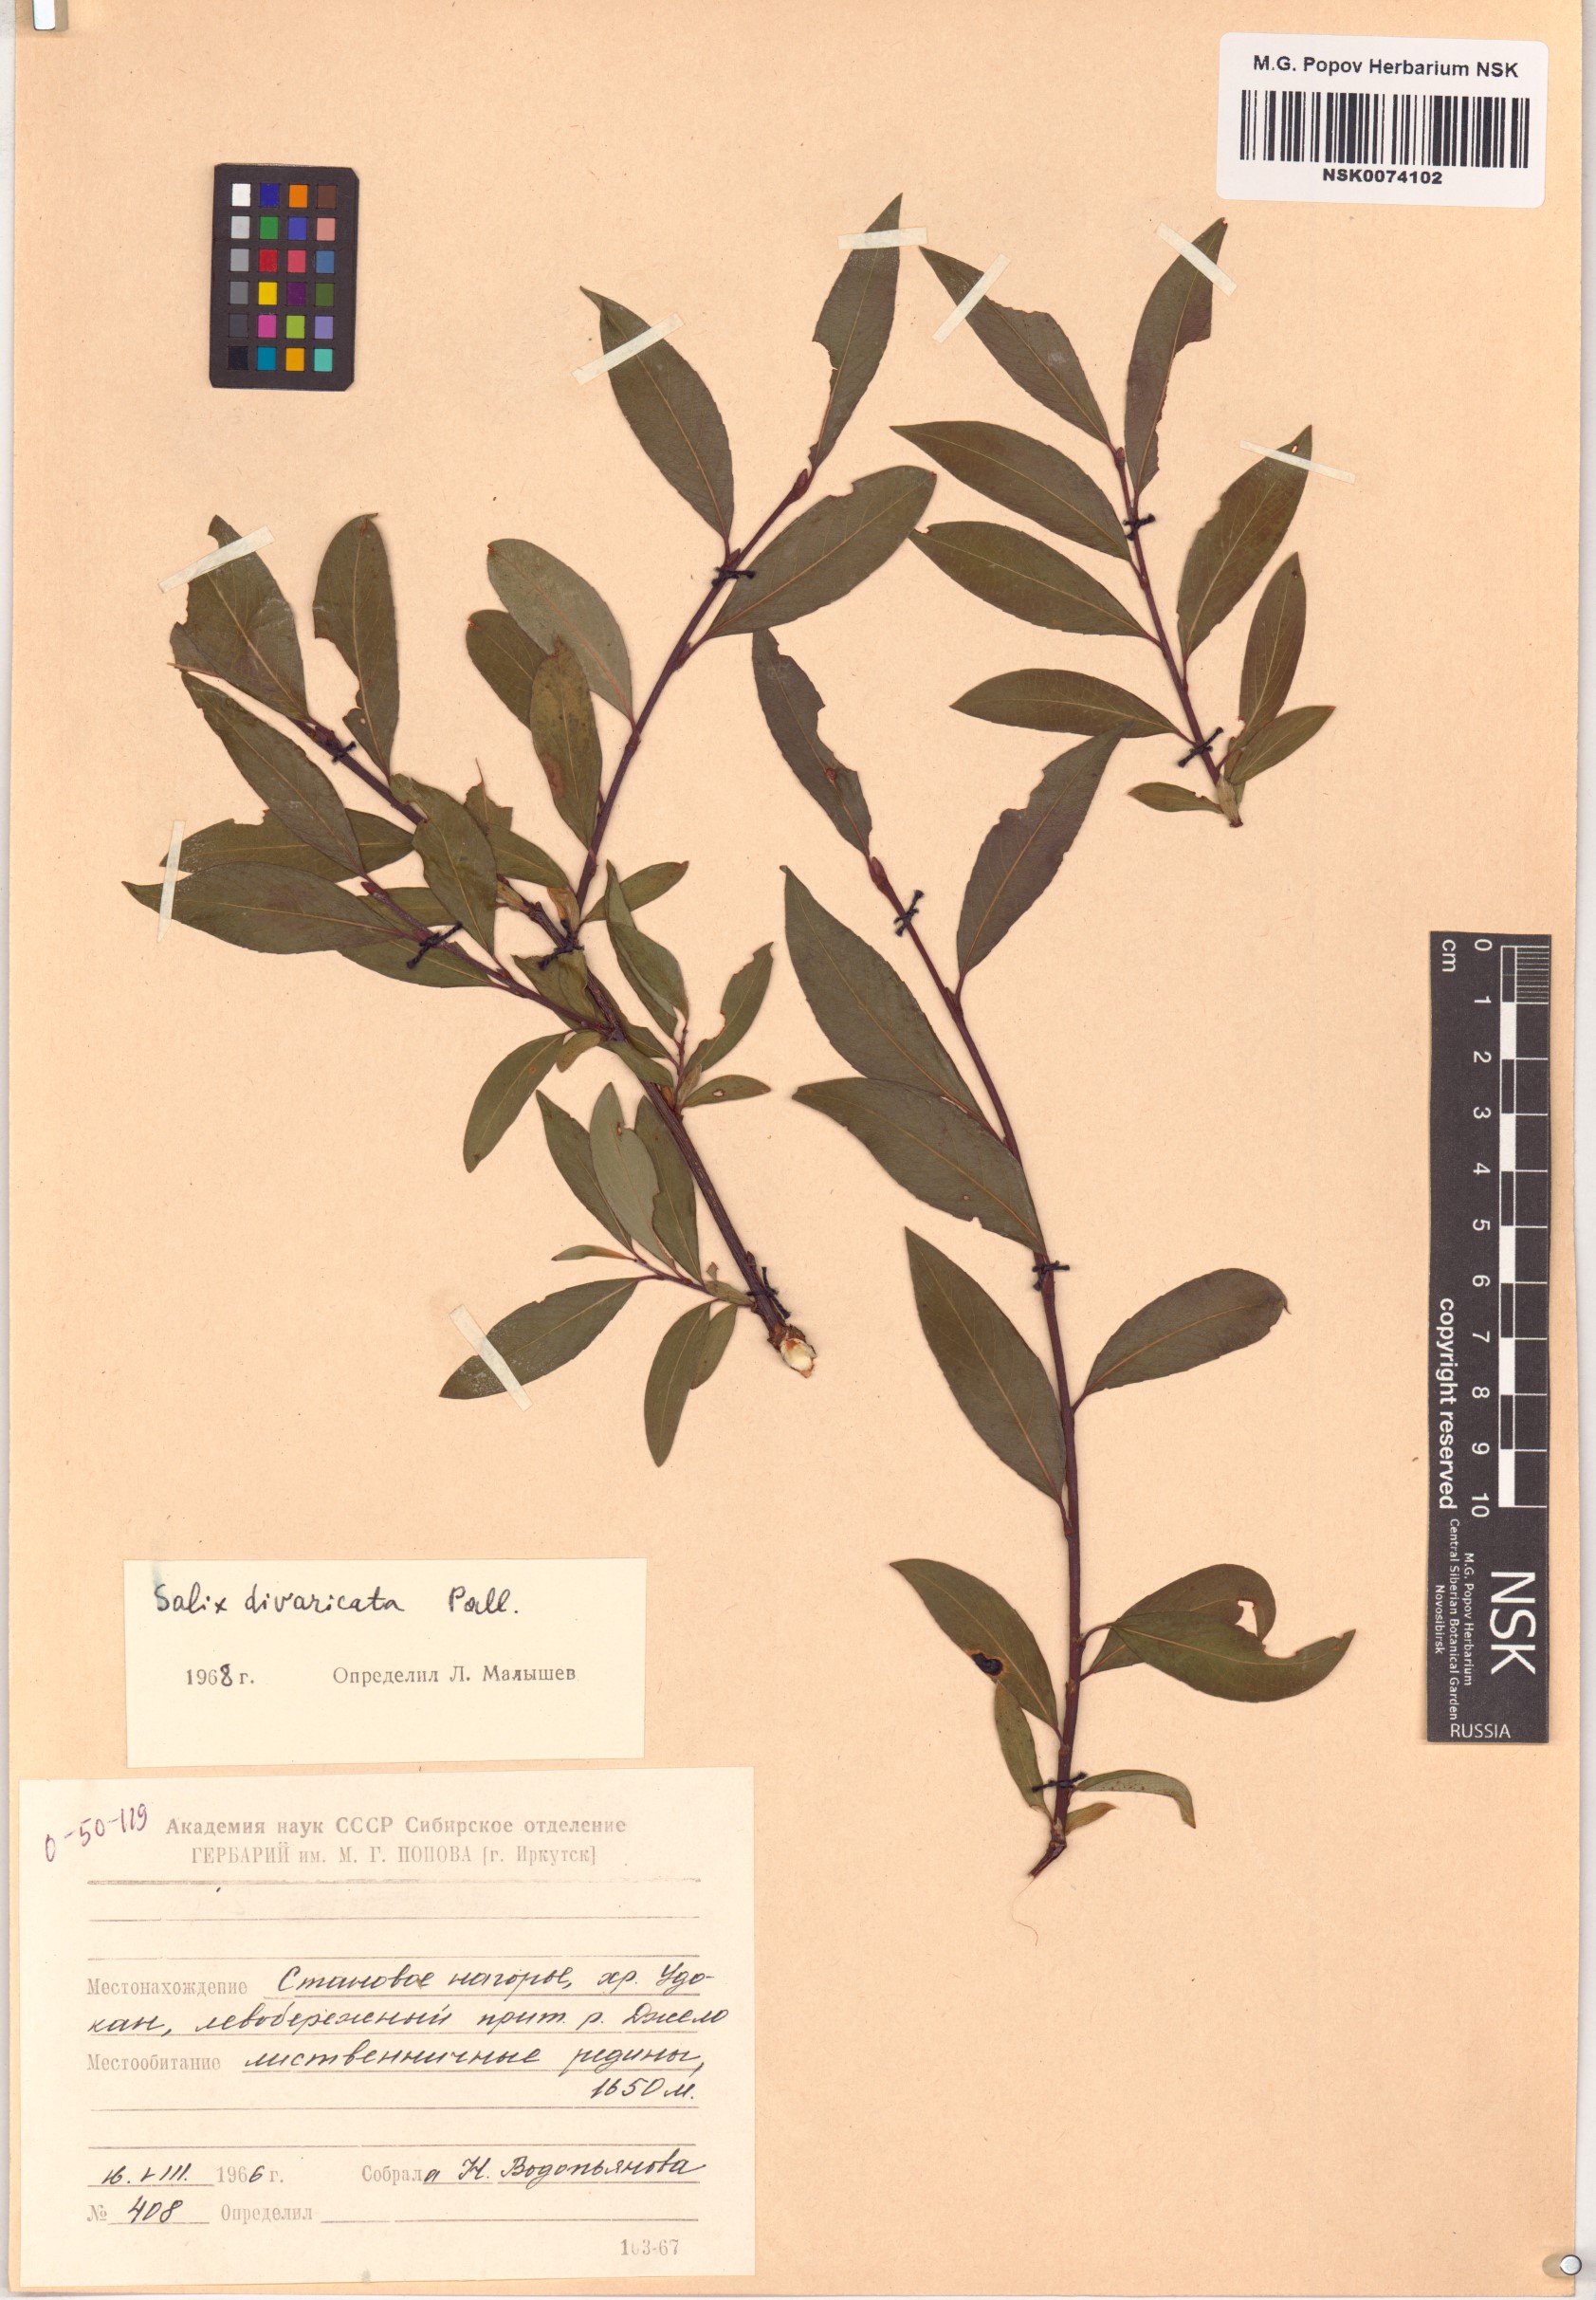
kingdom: Plantae
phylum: Tracheophyta
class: Magnoliopsida
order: Malpighiales
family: Salicaceae
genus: Salix
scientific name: Salix divaricata
